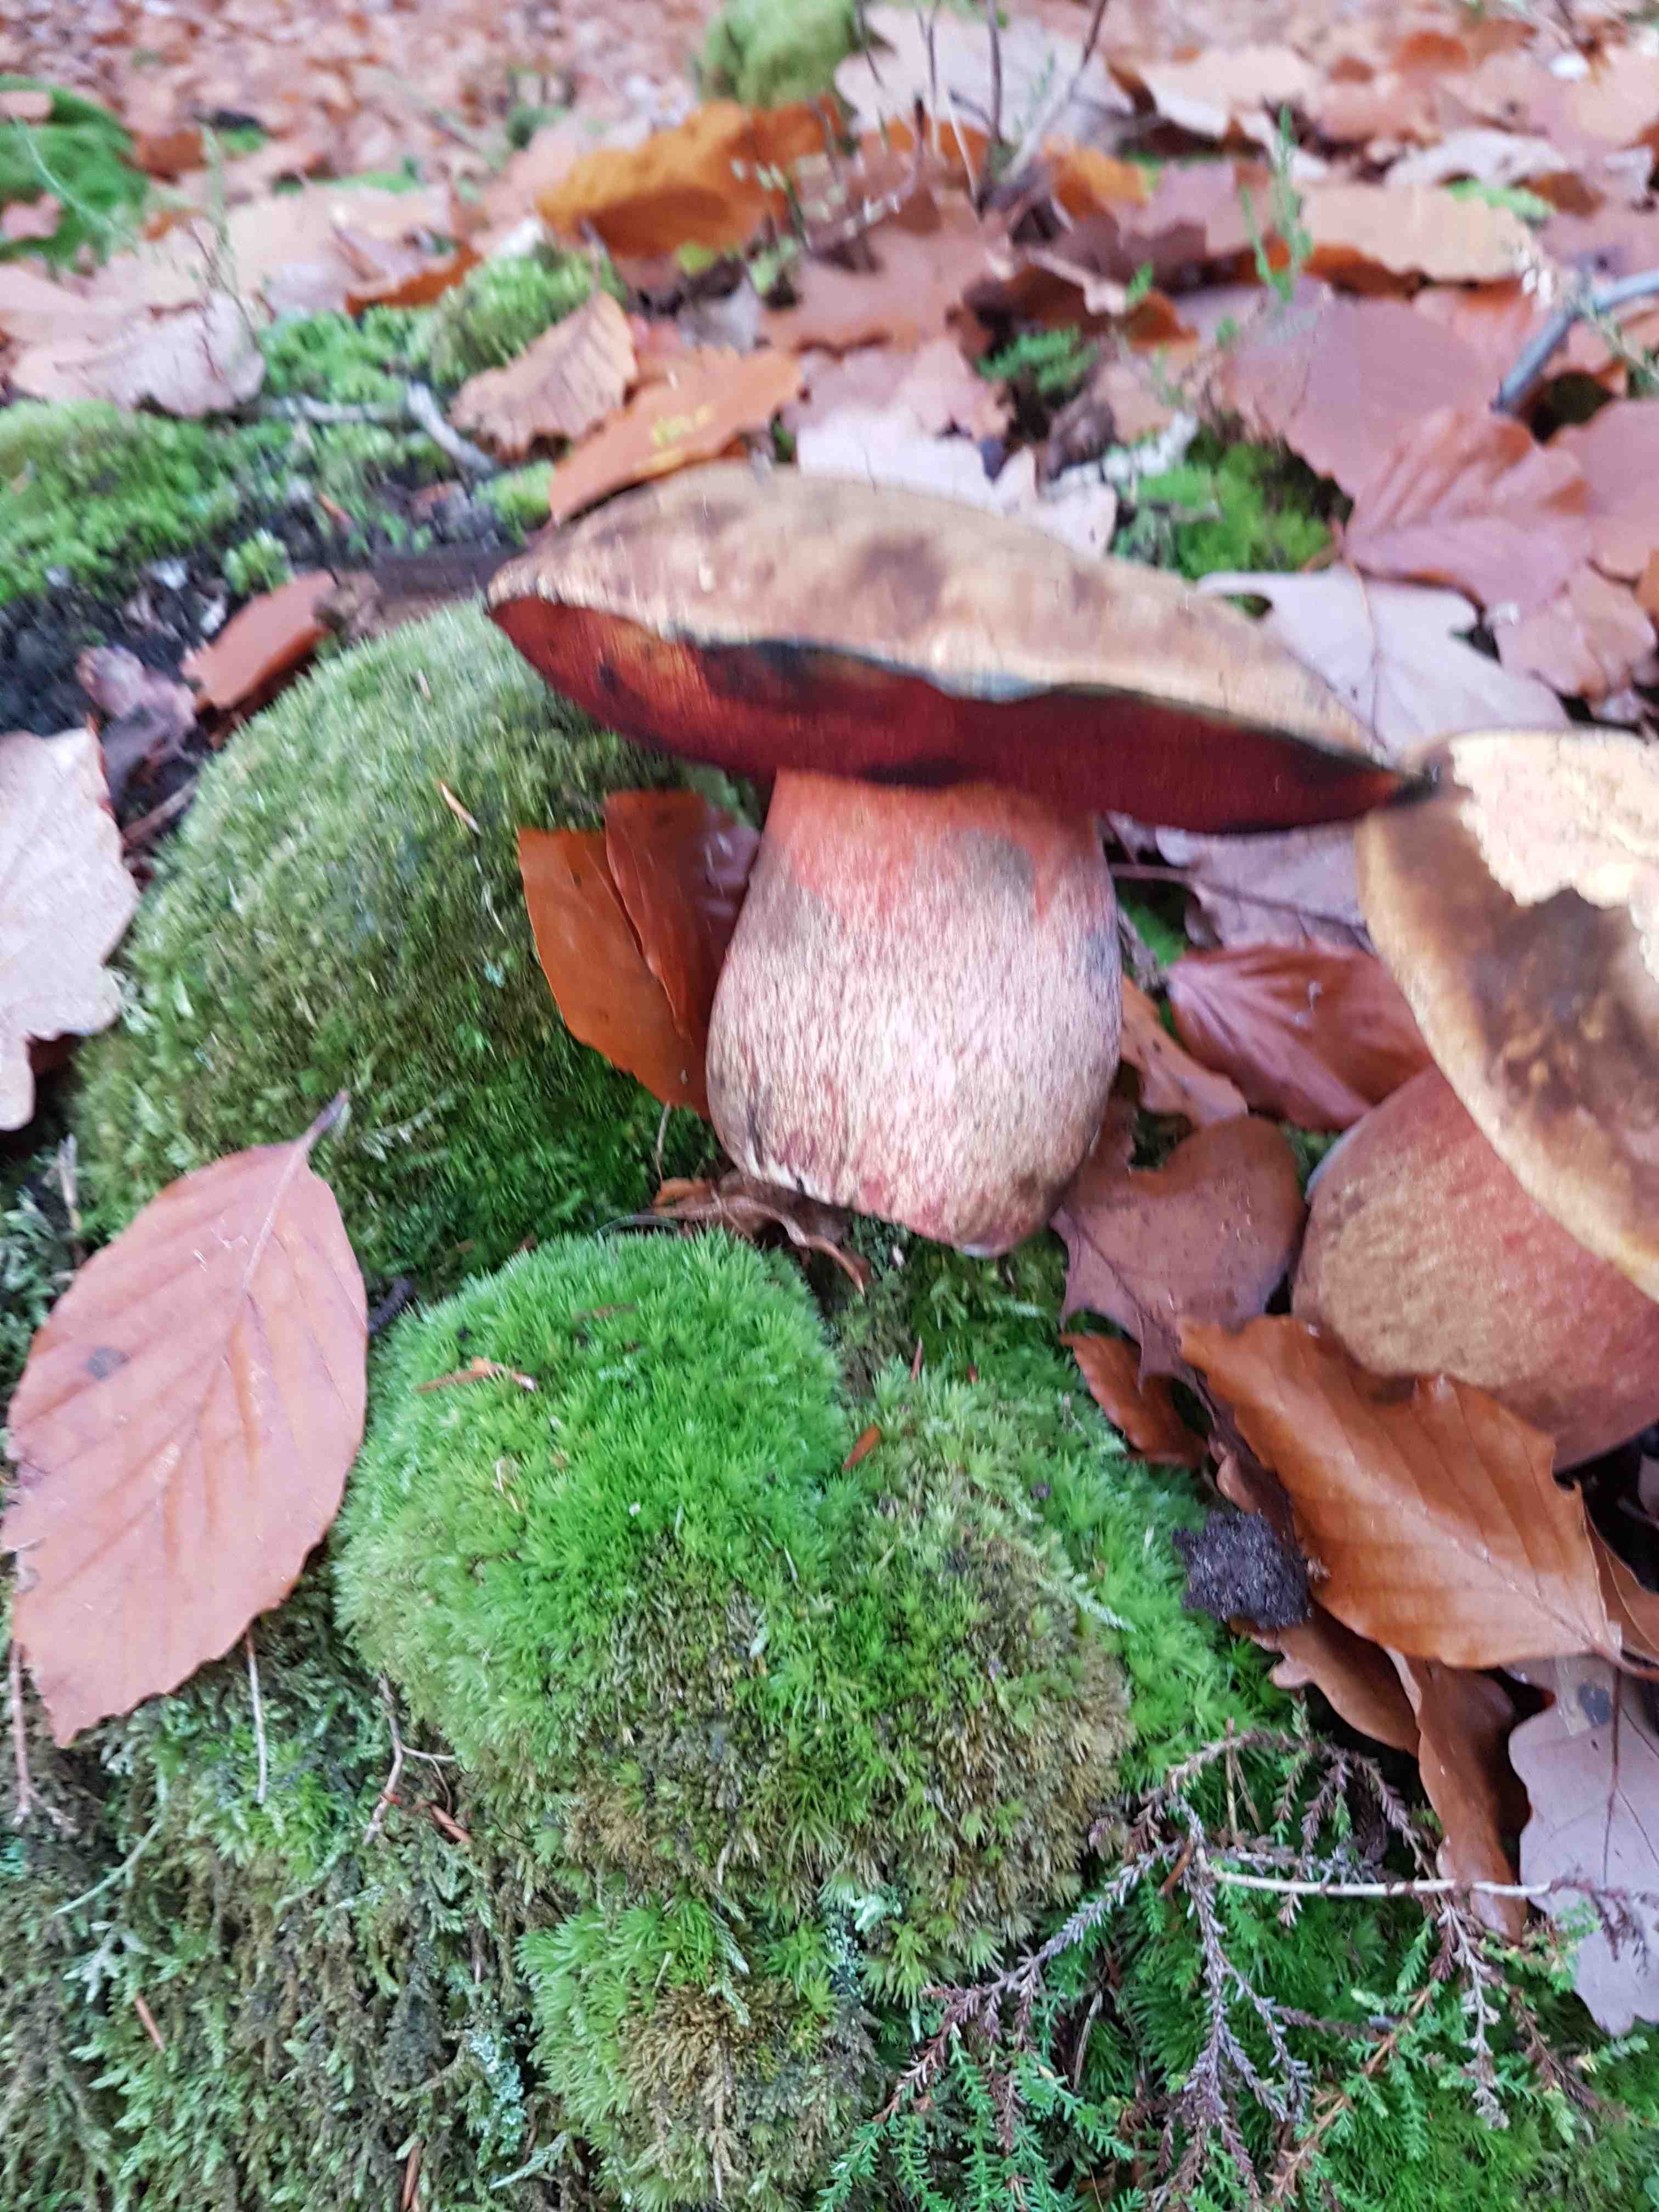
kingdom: Fungi
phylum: Basidiomycota
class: Agaricomycetes
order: Boletales
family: Boletaceae
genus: Neoboletus
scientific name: Neoboletus erythropus
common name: punktstokket indigorørhat
